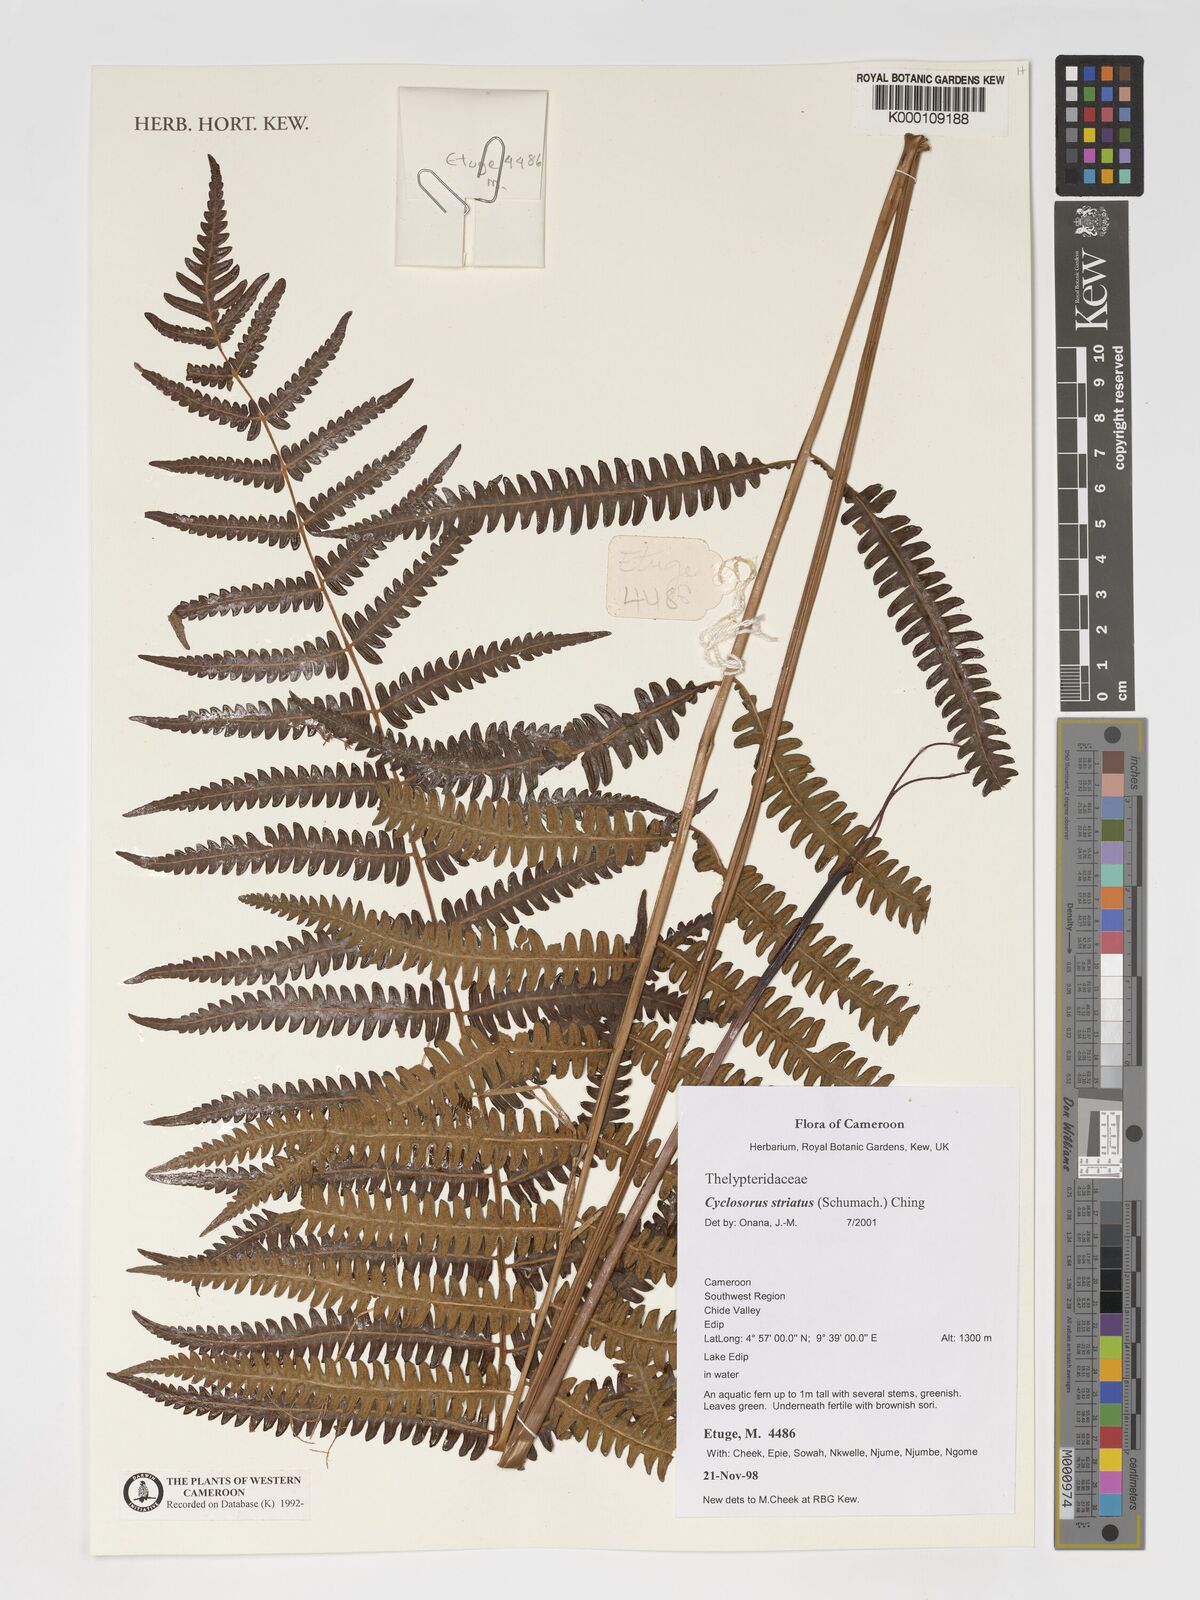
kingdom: Plantae
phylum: Tracheophyta
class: Polypodiopsida
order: Polypodiales
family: Thelypteridaceae
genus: Cyclosorus
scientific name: Cyclosorus striatus
